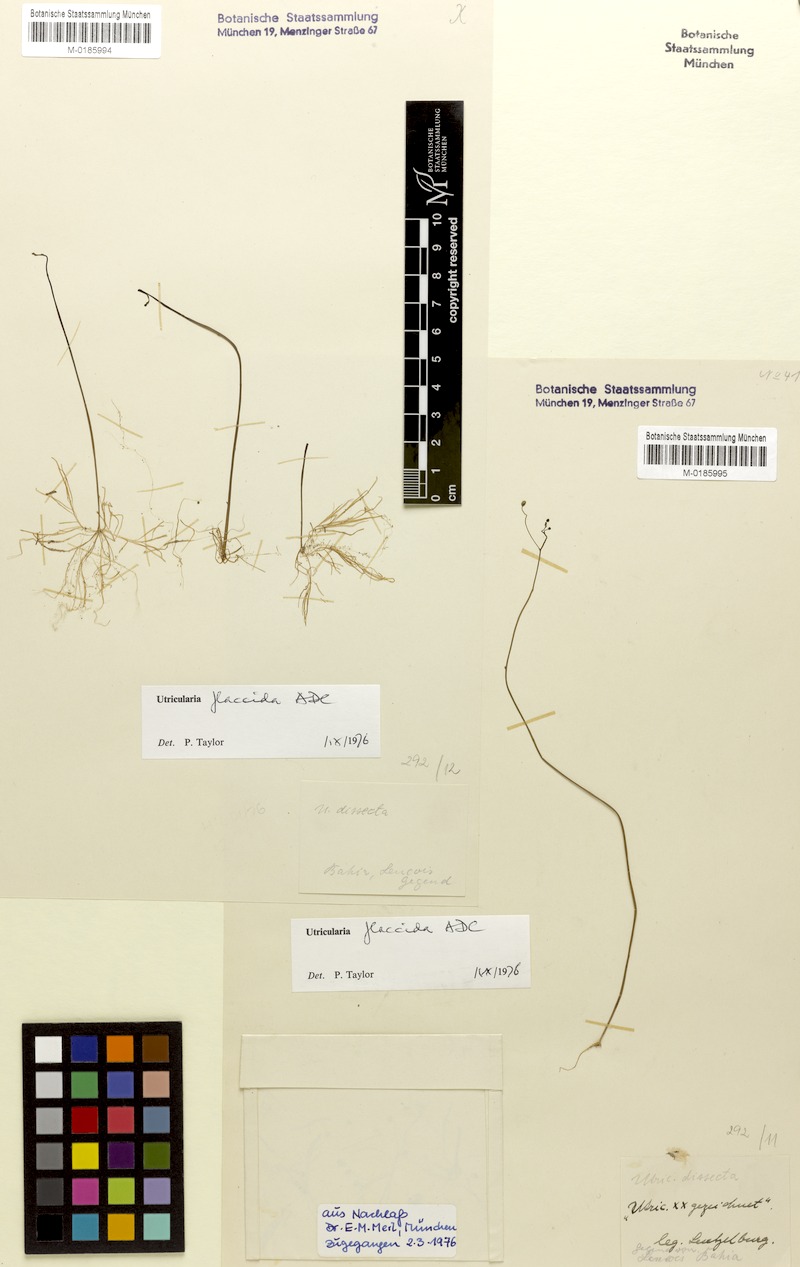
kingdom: Plantae
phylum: Tracheophyta
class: Magnoliopsida
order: Lamiales
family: Lentibulariaceae
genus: Utricularia
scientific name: Utricularia flaccida
